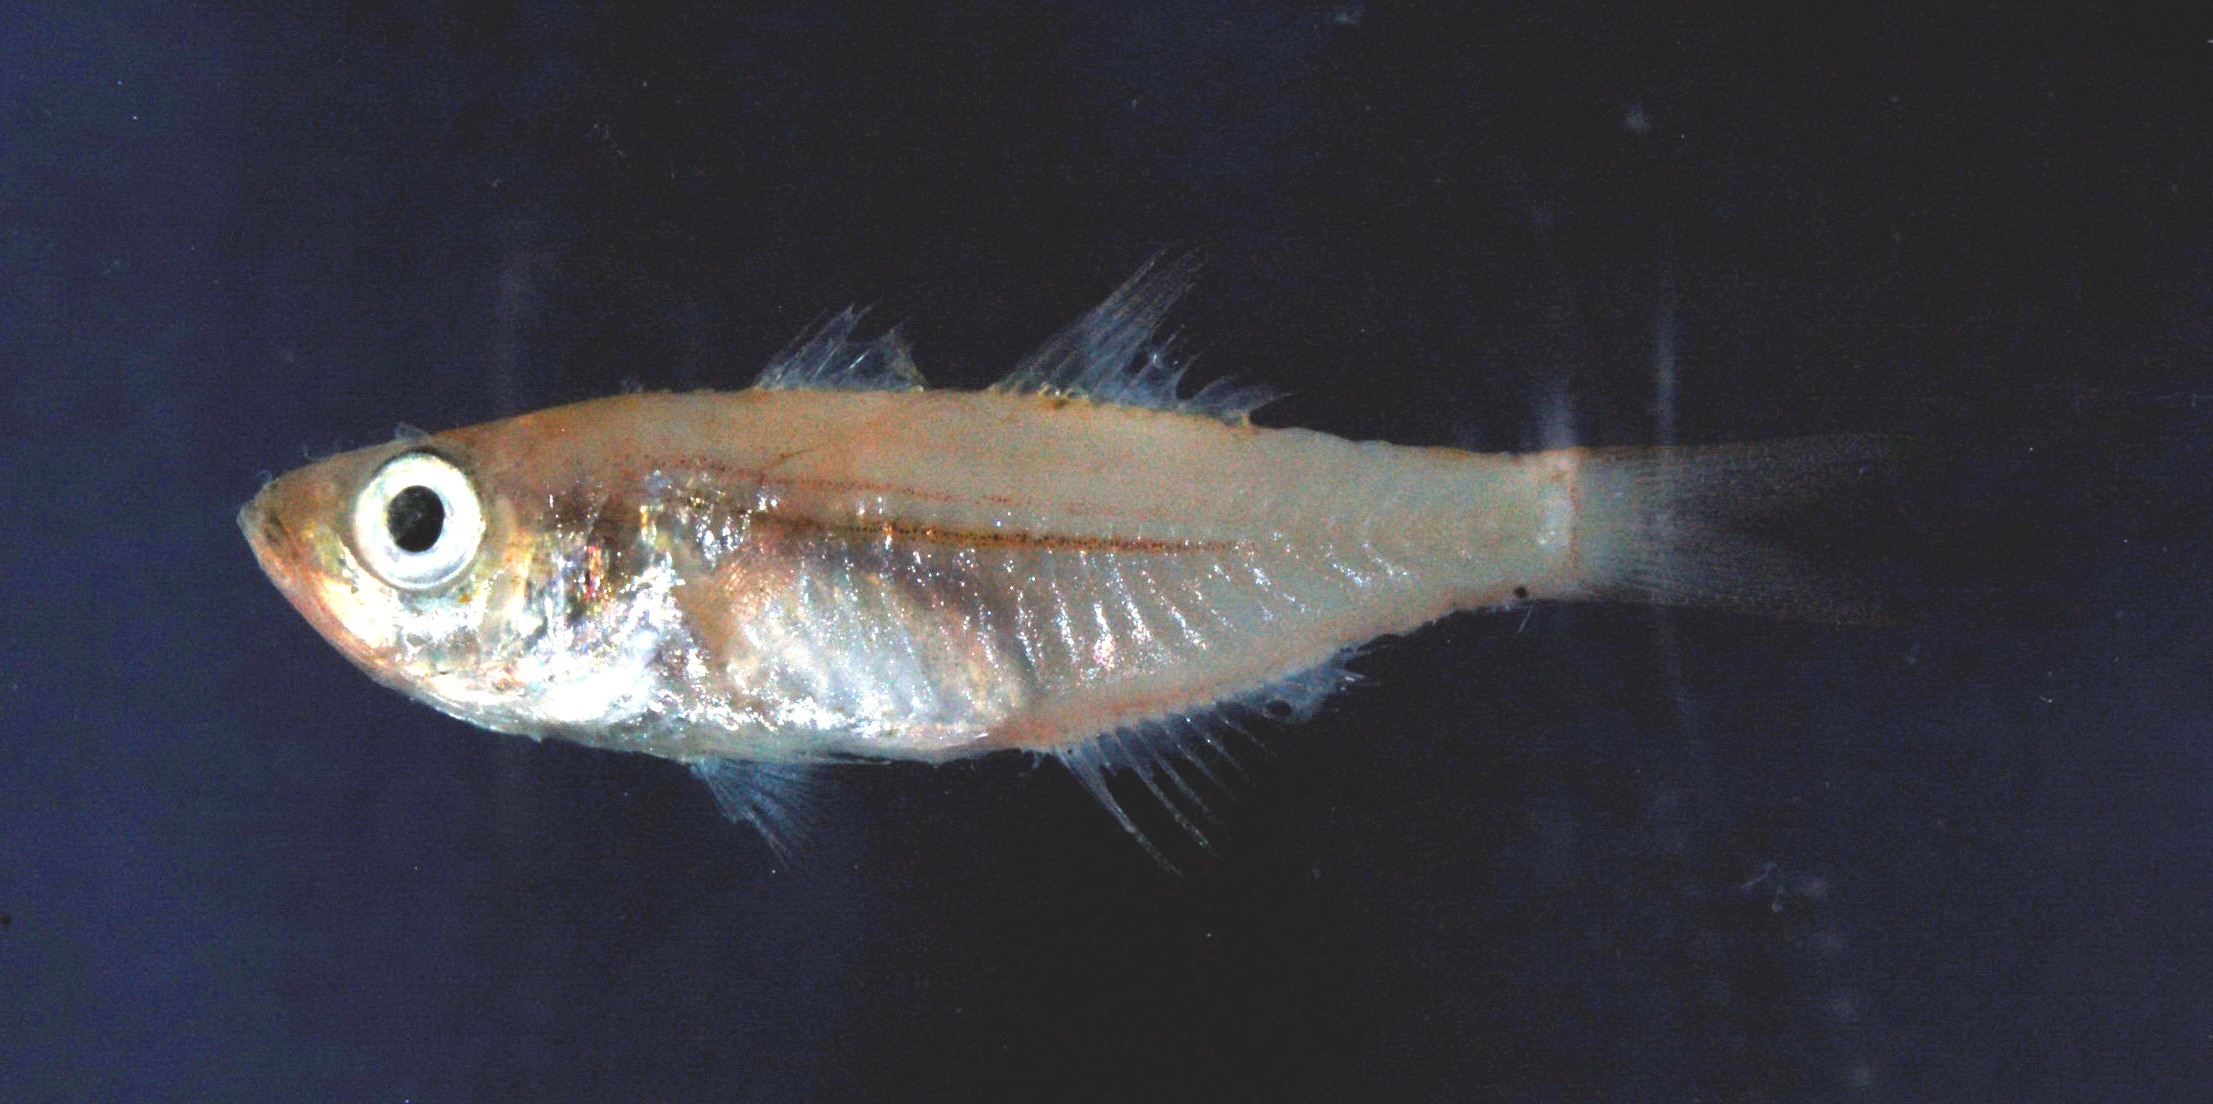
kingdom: Animalia
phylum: Chordata
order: Perciformes
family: Apogonidae
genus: Rhabdamia
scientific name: Rhabdamia gracilis
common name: Luminous cardinalfish
